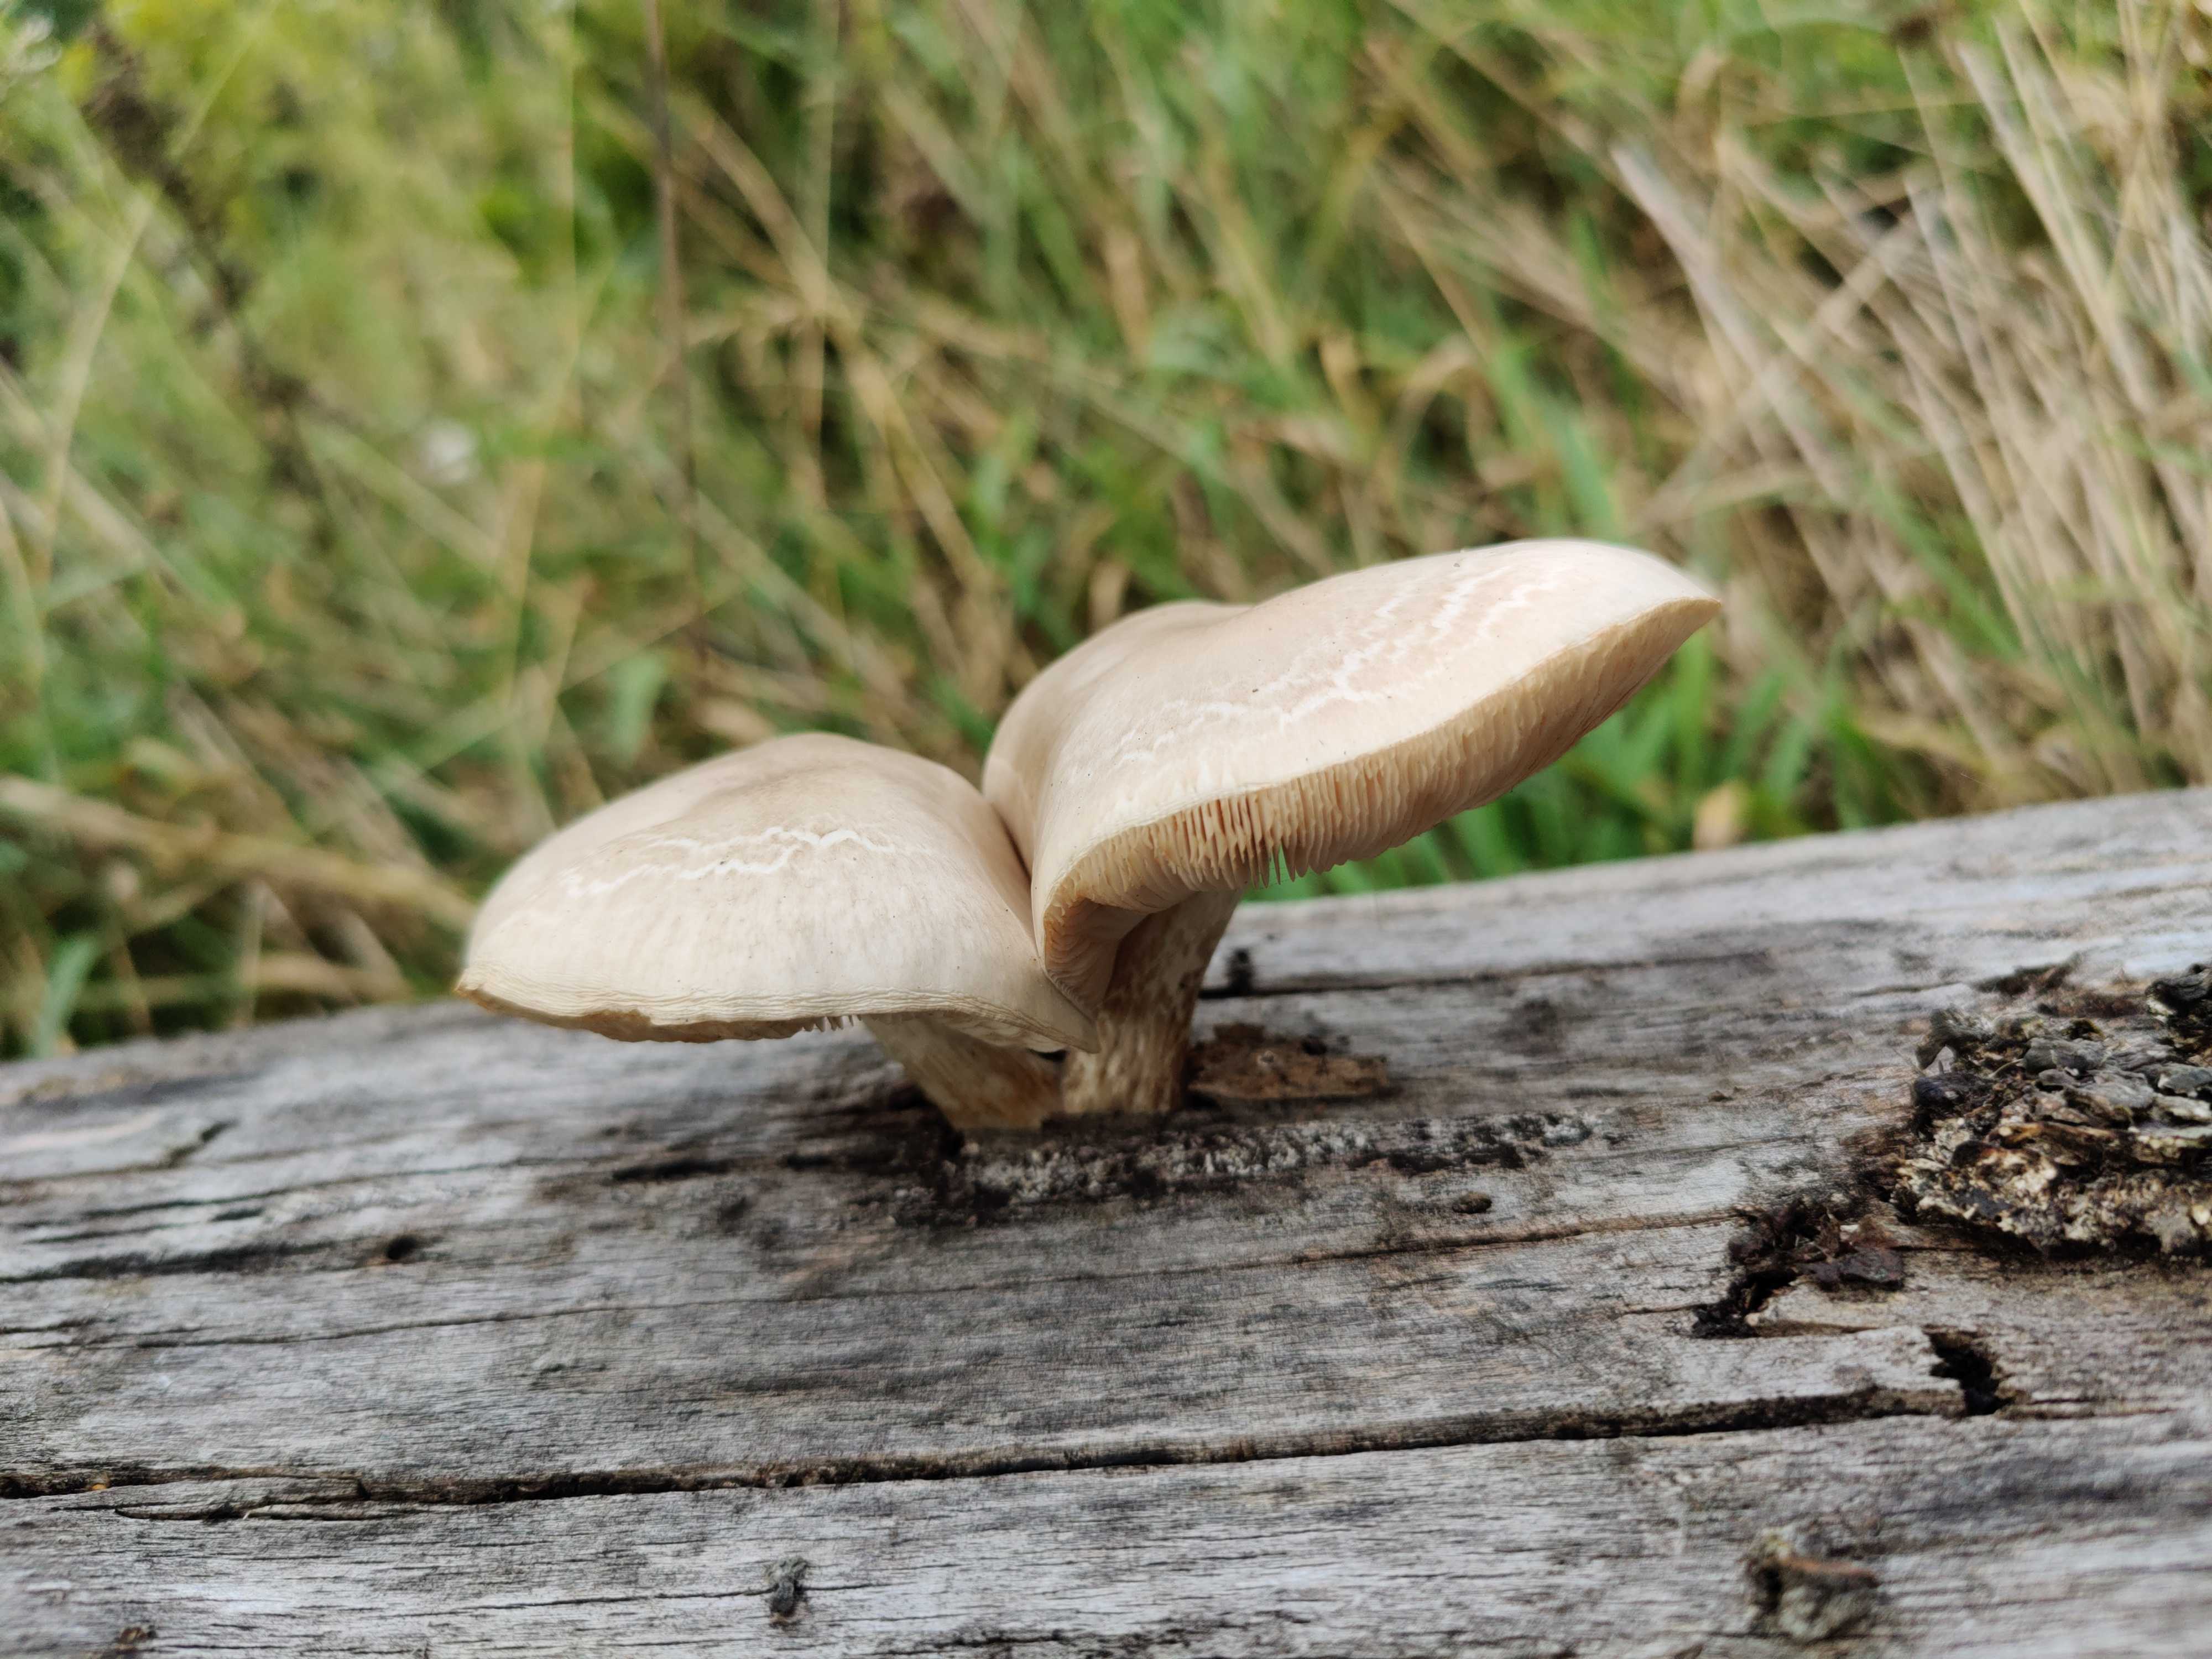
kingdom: Fungi
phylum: Basidiomycota
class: Agaricomycetes
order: Agaricales
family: Pluteaceae
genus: Pluteus
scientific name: Pluteus
